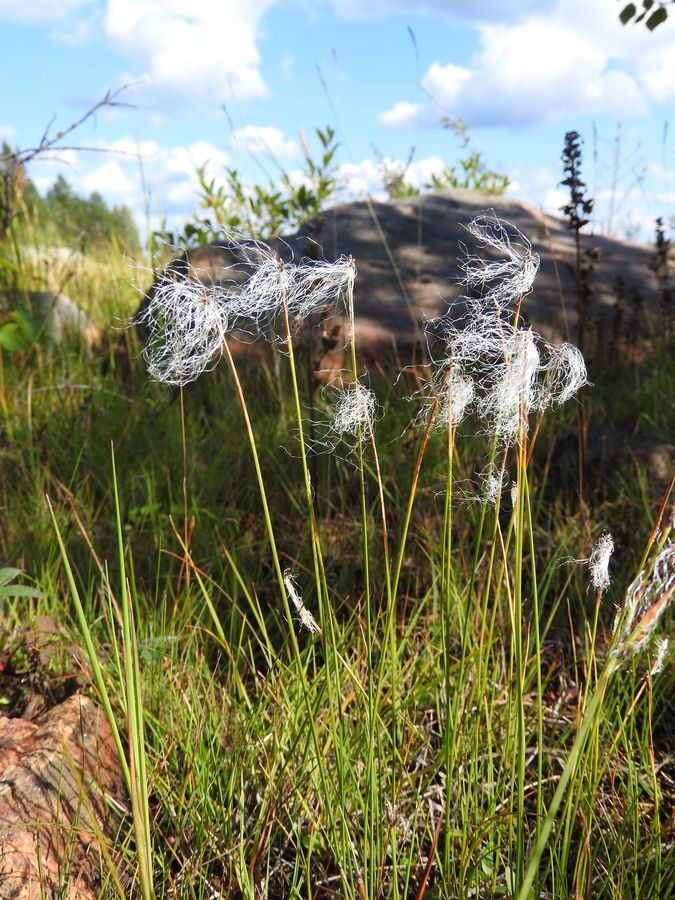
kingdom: Plantae
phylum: Tracheophyta
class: Liliopsida
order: Poales
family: Cyperaceae
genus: Trichophorum
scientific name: Trichophorum alpinum
